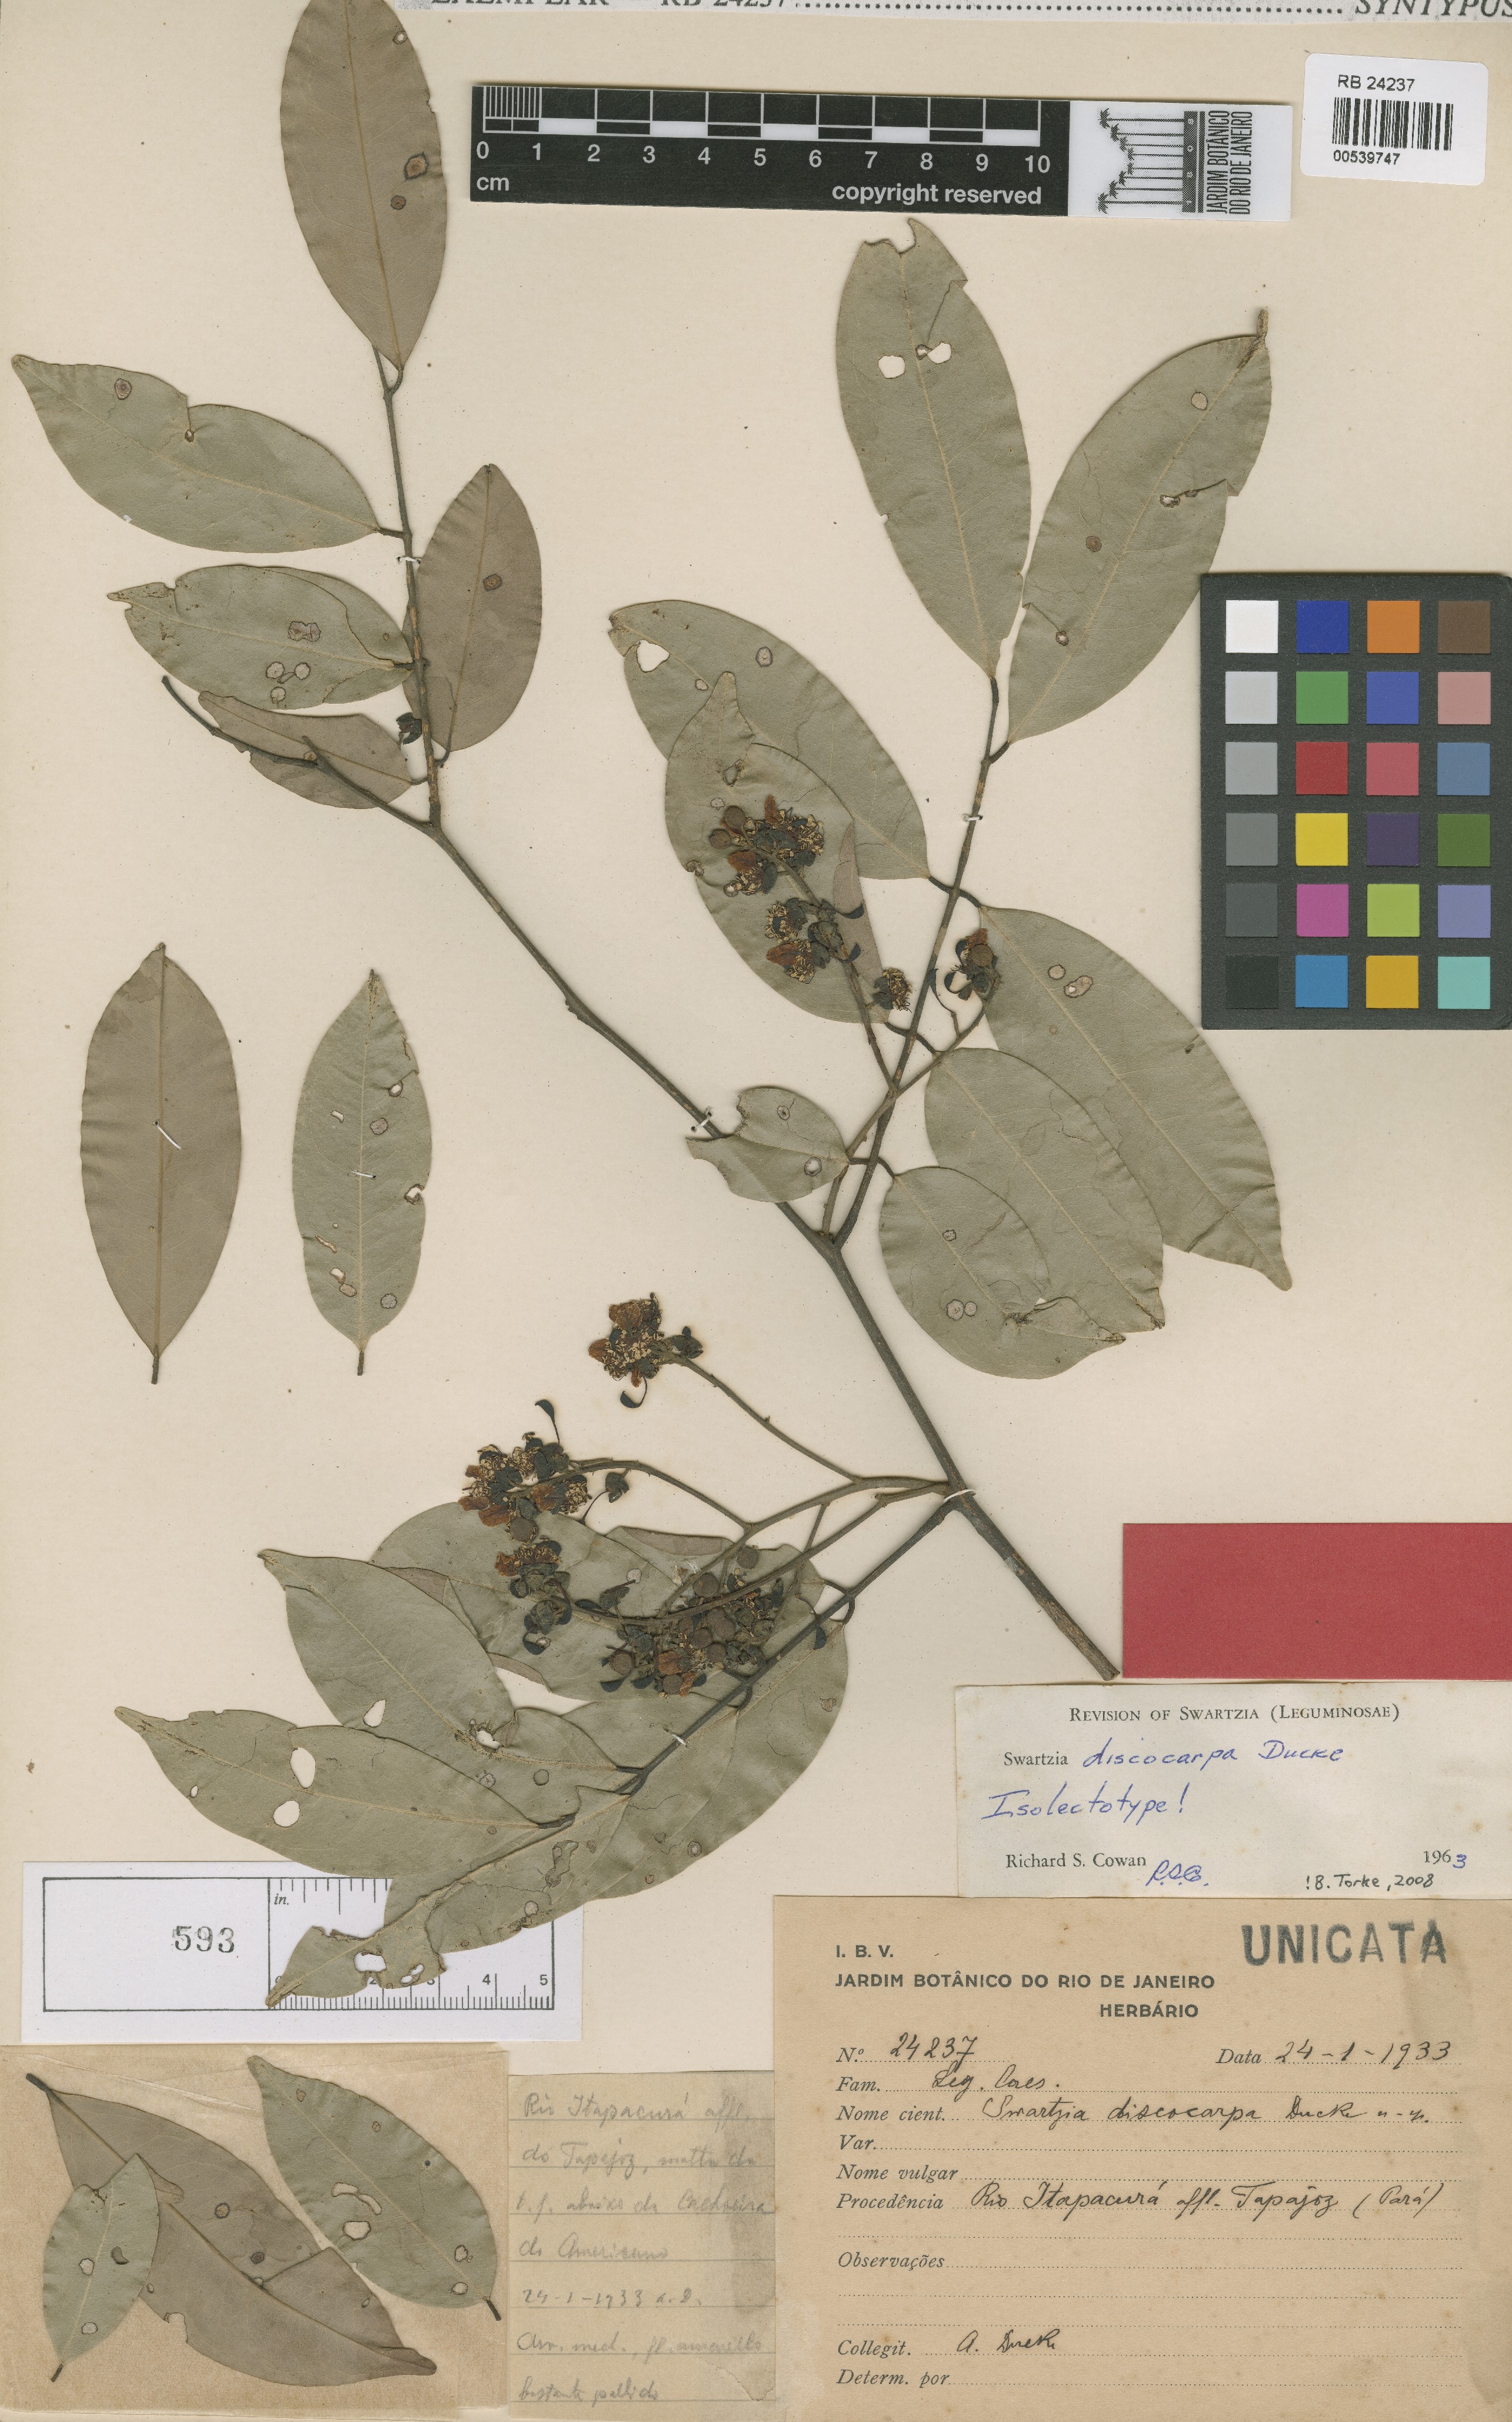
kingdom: Plantae
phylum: Tracheophyta
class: Magnoliopsida
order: Fabales
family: Fabaceae
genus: Swartzia
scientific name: Swartzia discocarpa
